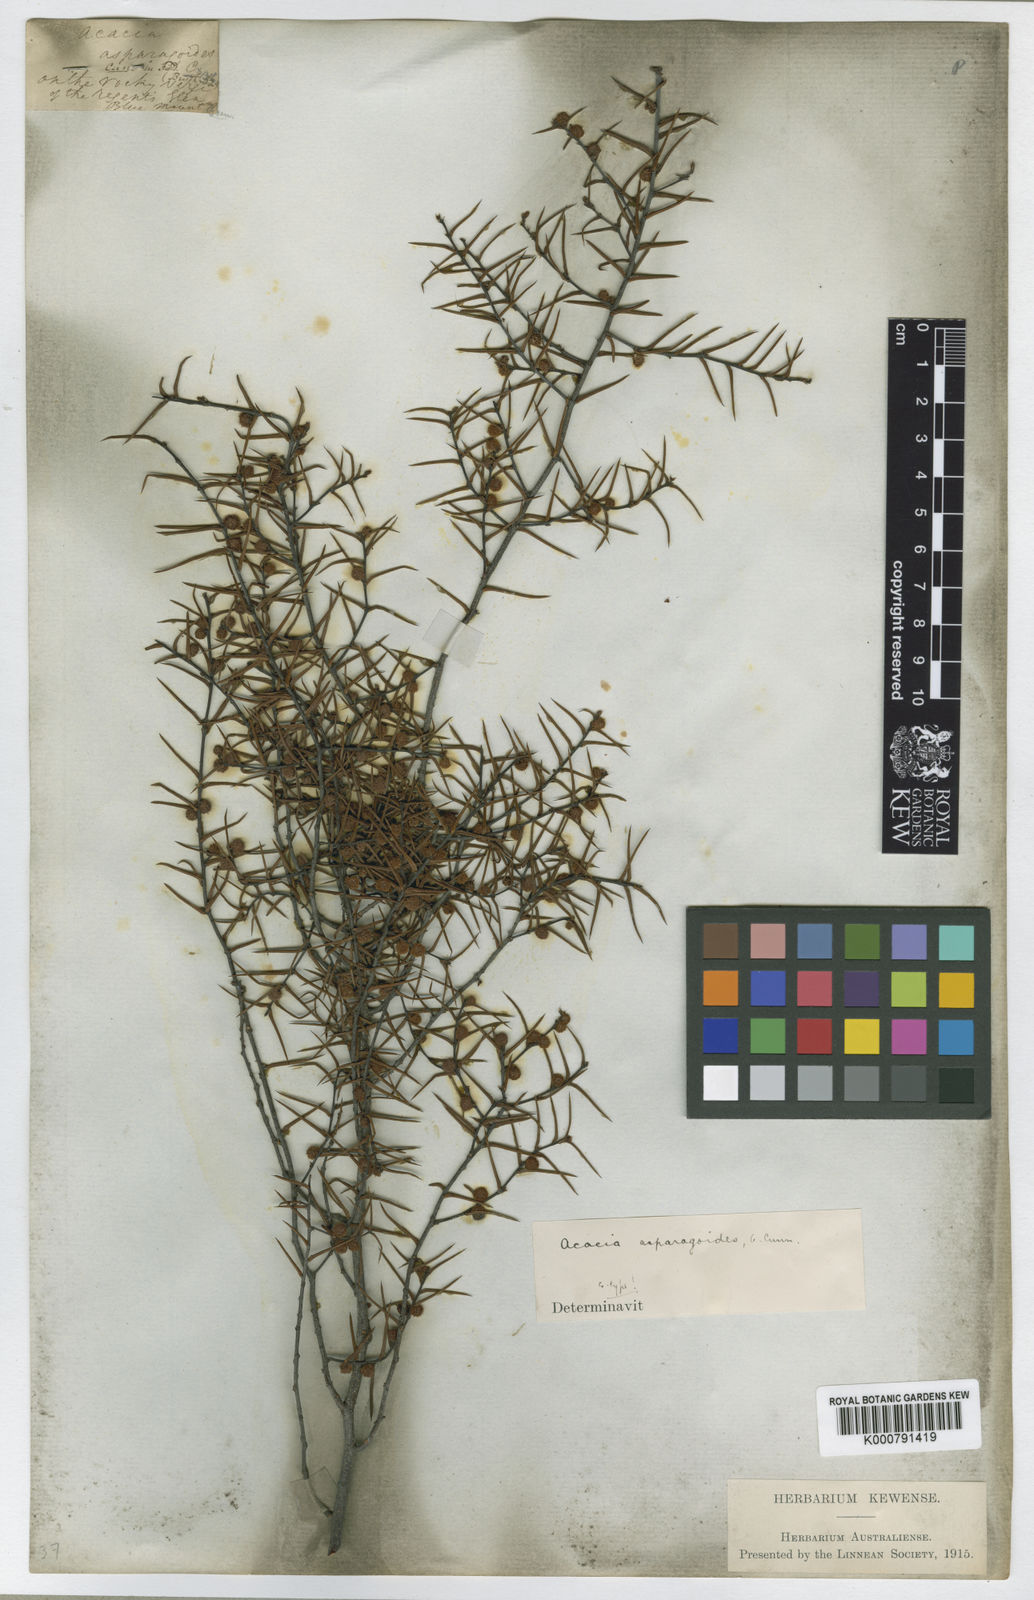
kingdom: Plantae
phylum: Tracheophyta
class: Magnoliopsida
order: Fabales
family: Fabaceae
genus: Acacia
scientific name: Acacia asparagoides
